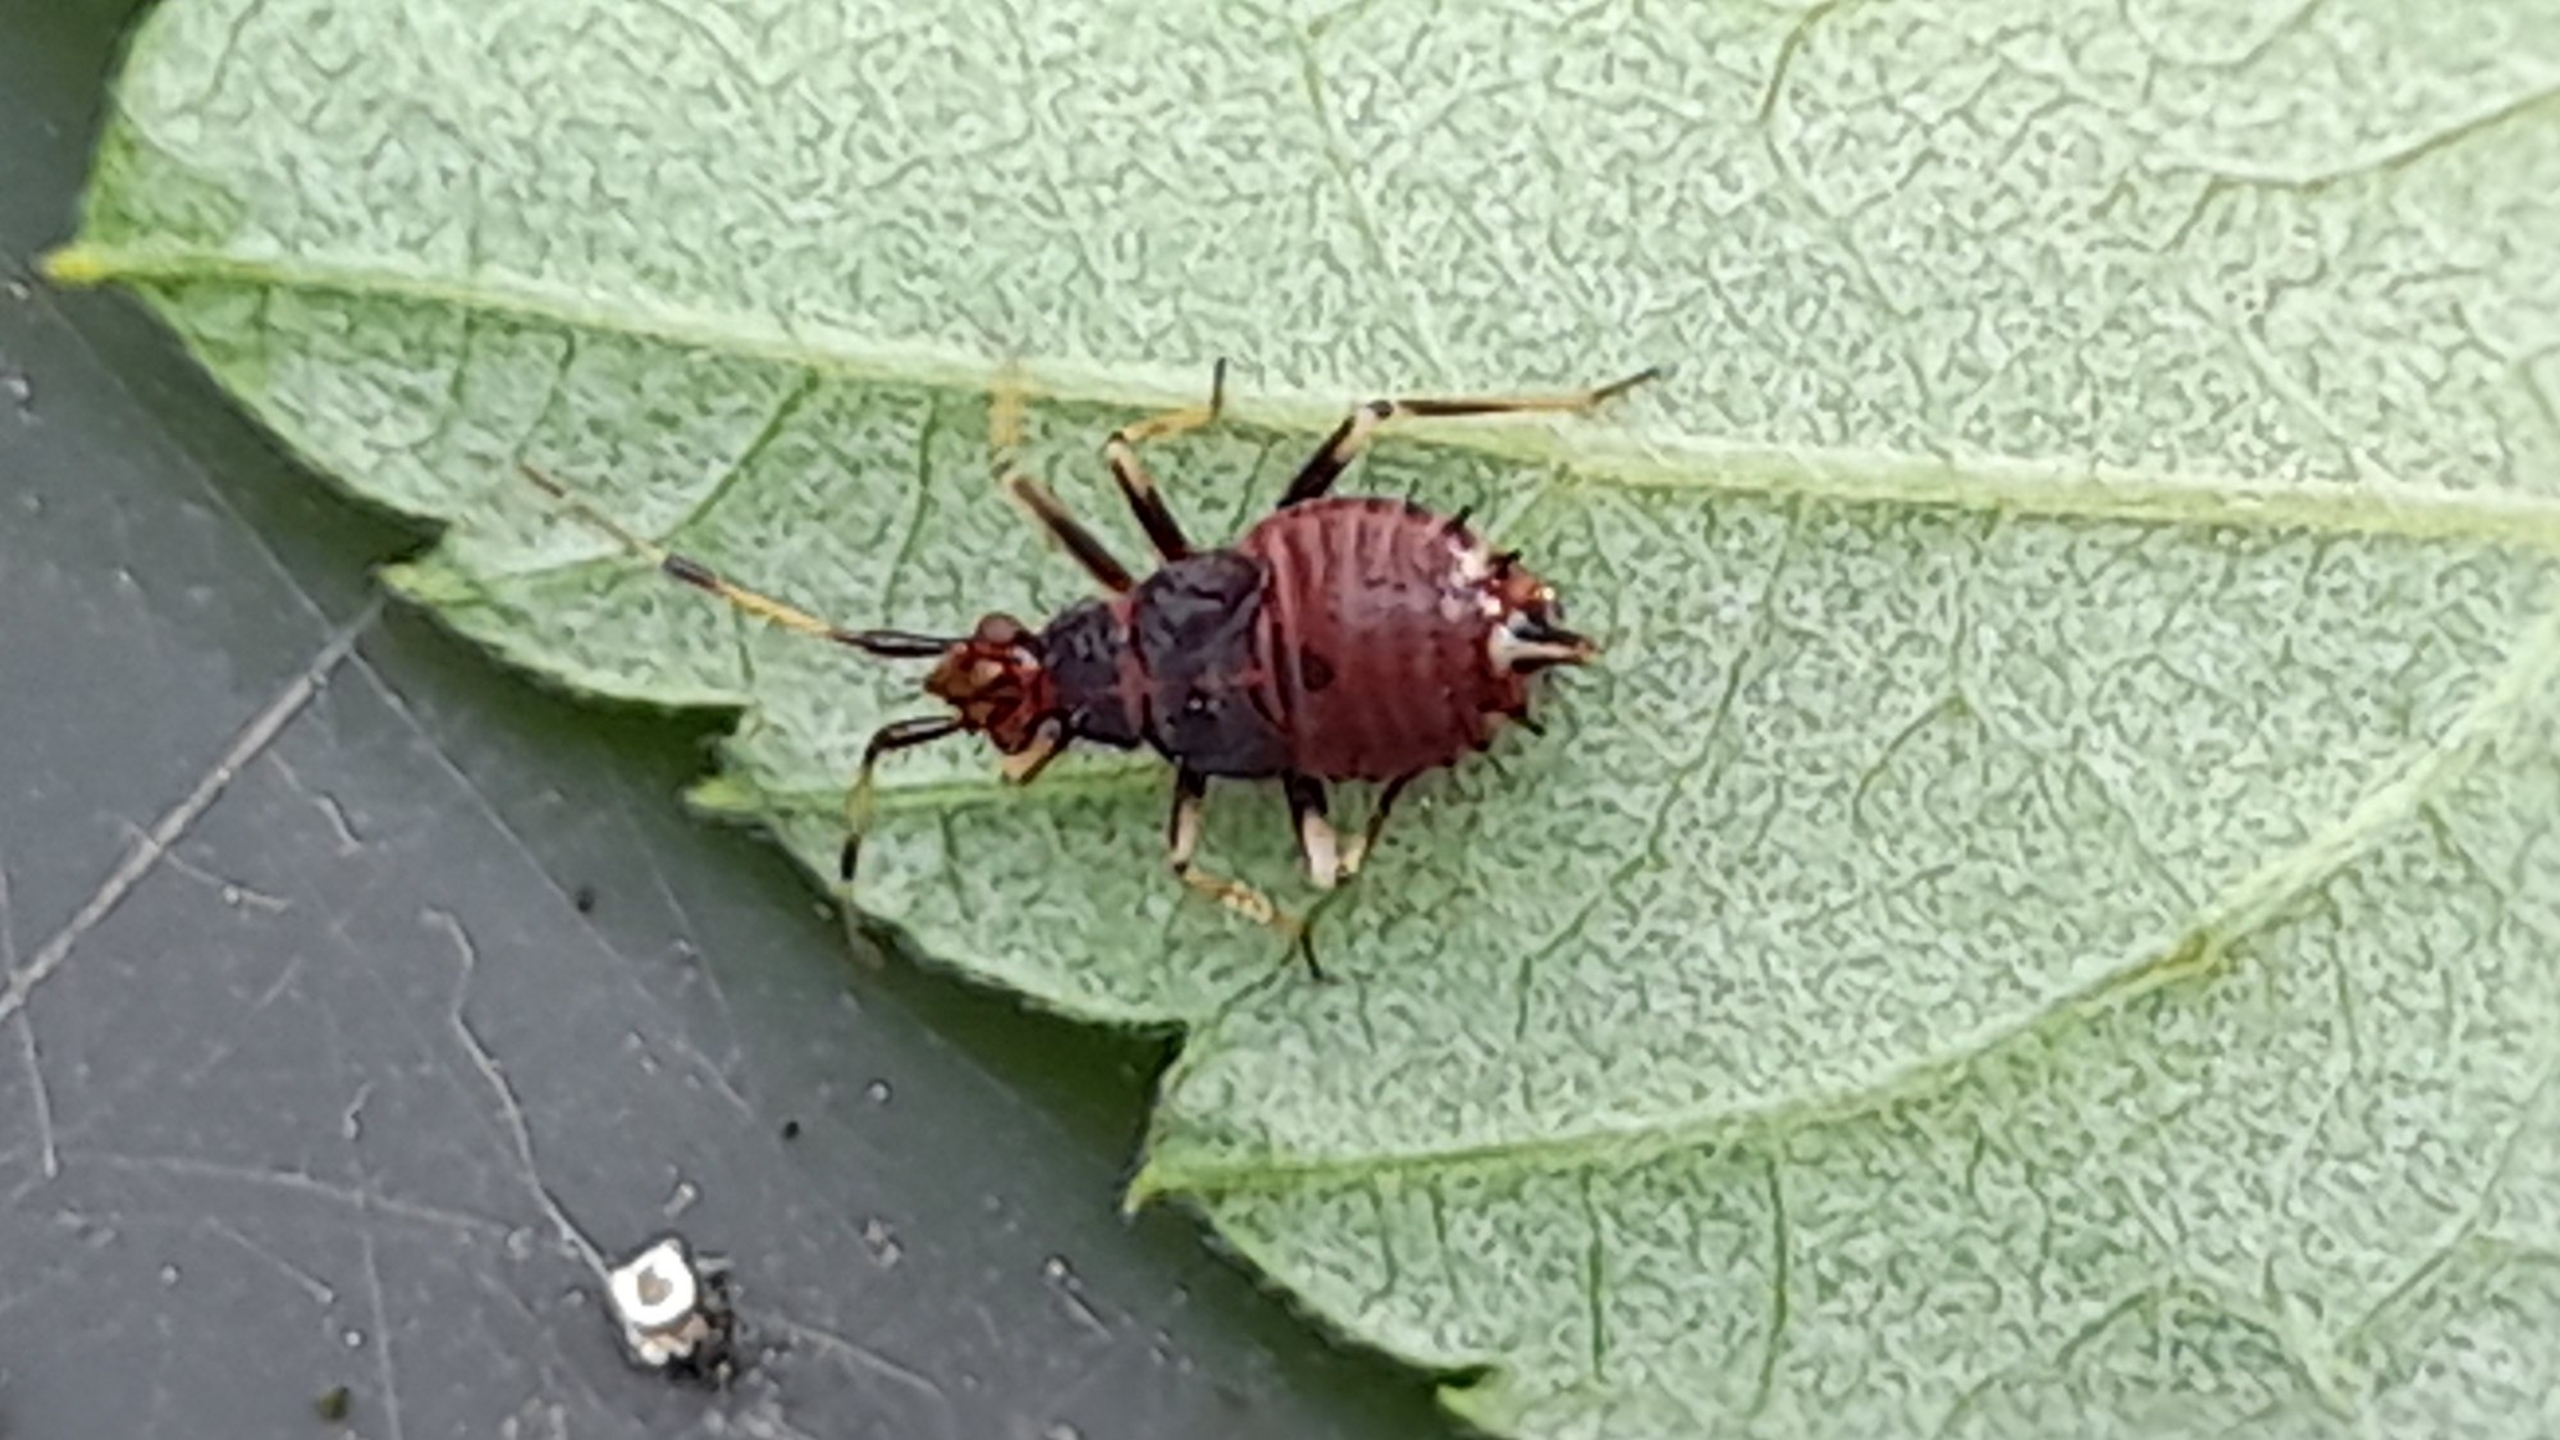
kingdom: Animalia
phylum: Arthropoda
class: Insecta
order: Hemiptera
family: Miridae
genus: Deraeocoris
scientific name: Deraeocoris ruber
